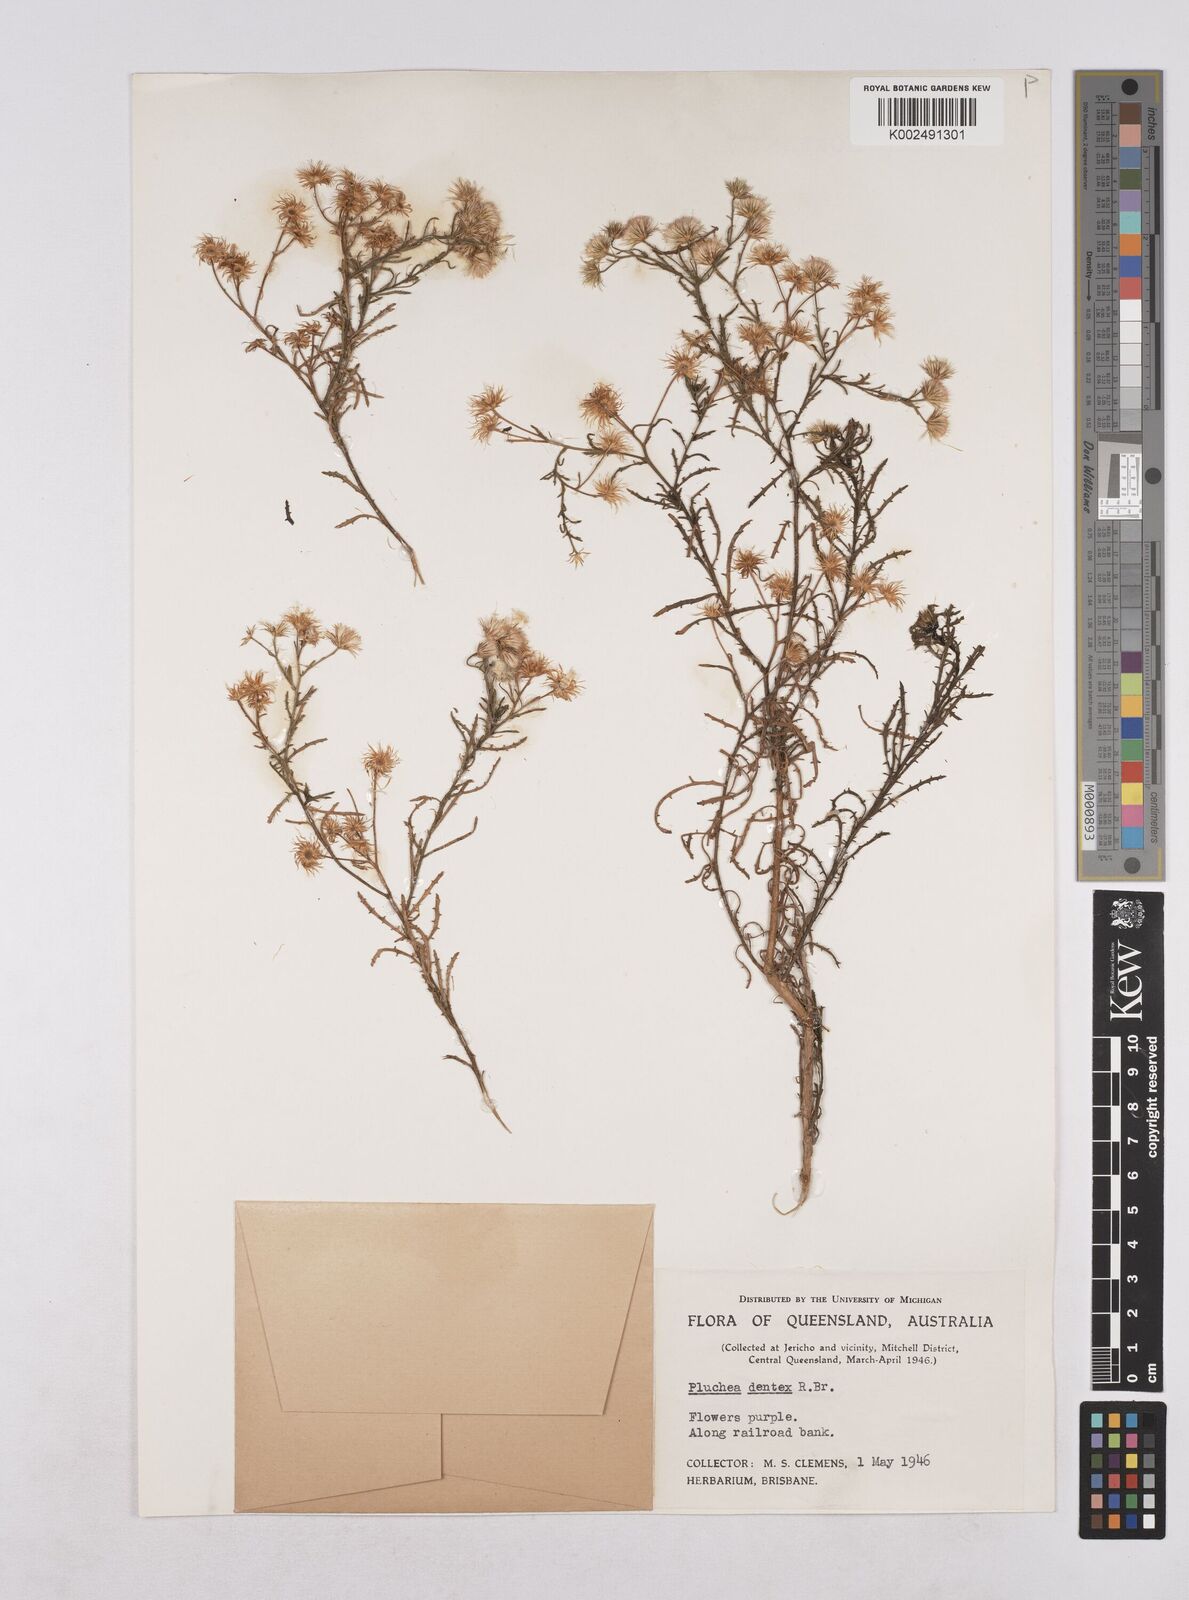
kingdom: Plantae
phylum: Tracheophyta
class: Magnoliopsida
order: Asterales
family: Asteraceae
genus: Pluchea
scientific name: Pluchea dentex
